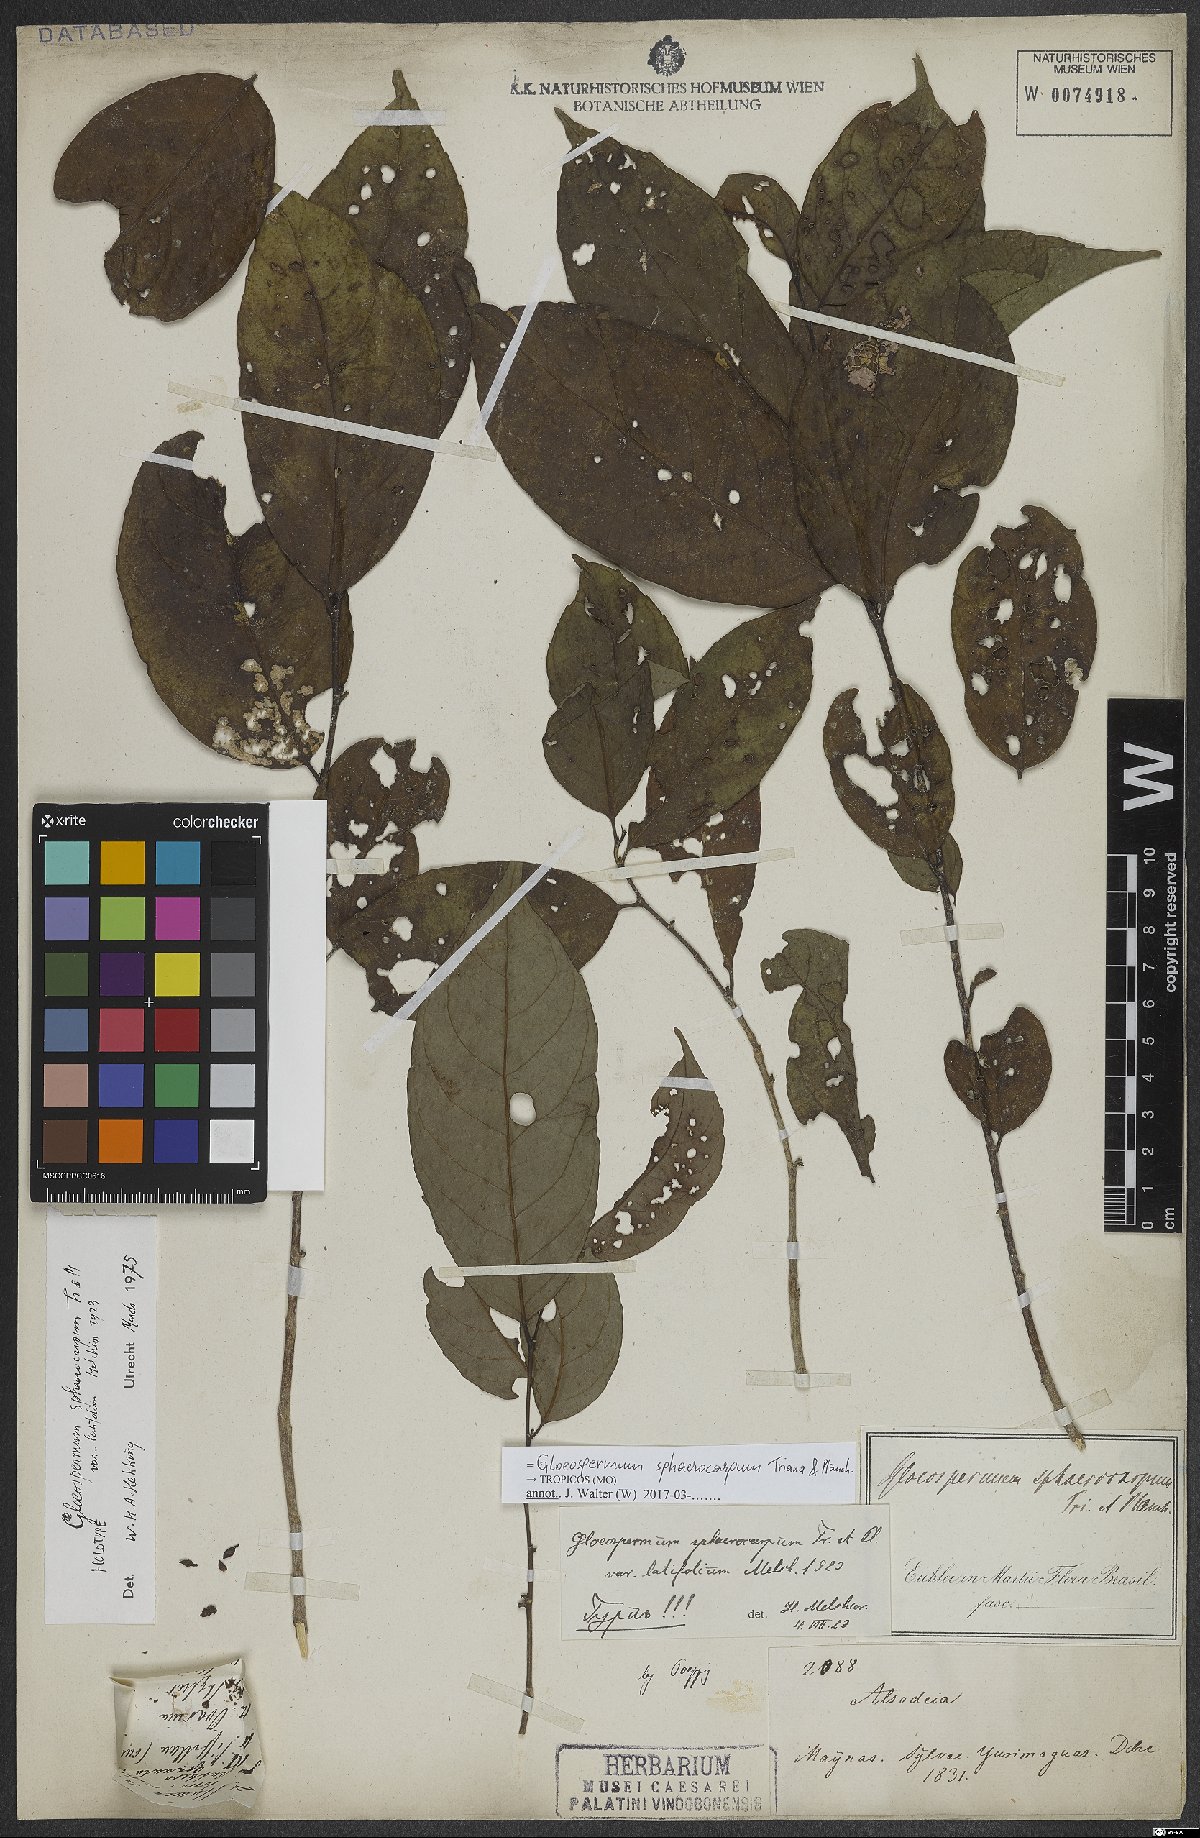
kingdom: Plantae
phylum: Tracheophyta
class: Magnoliopsida
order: Malpighiales
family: Violaceae
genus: Gloeospermum
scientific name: Gloeospermum sphaerocarpum
